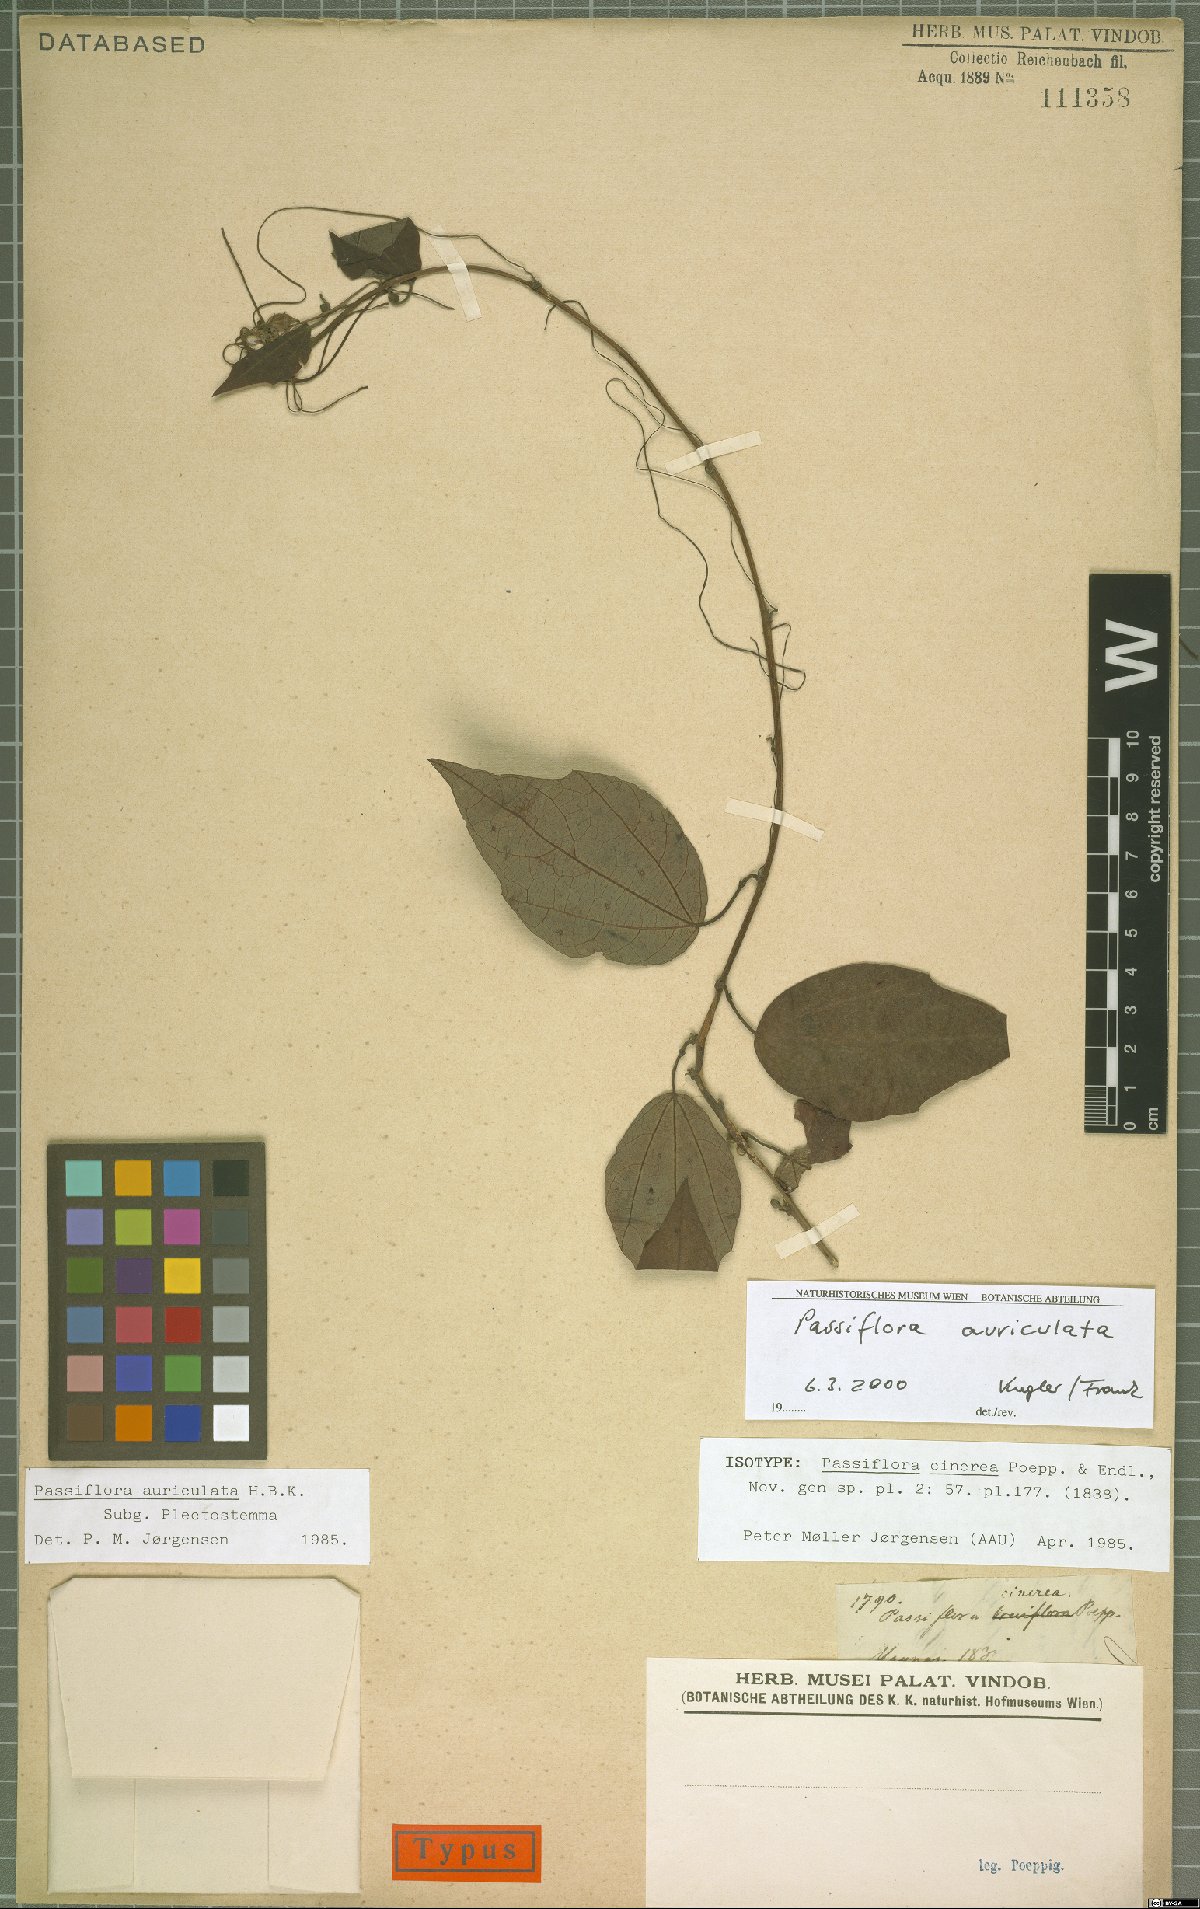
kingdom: Plantae
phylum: Tracheophyta
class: Magnoliopsida
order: Malpighiales
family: Passifloraceae
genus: Passiflora
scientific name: Passiflora auriculata
